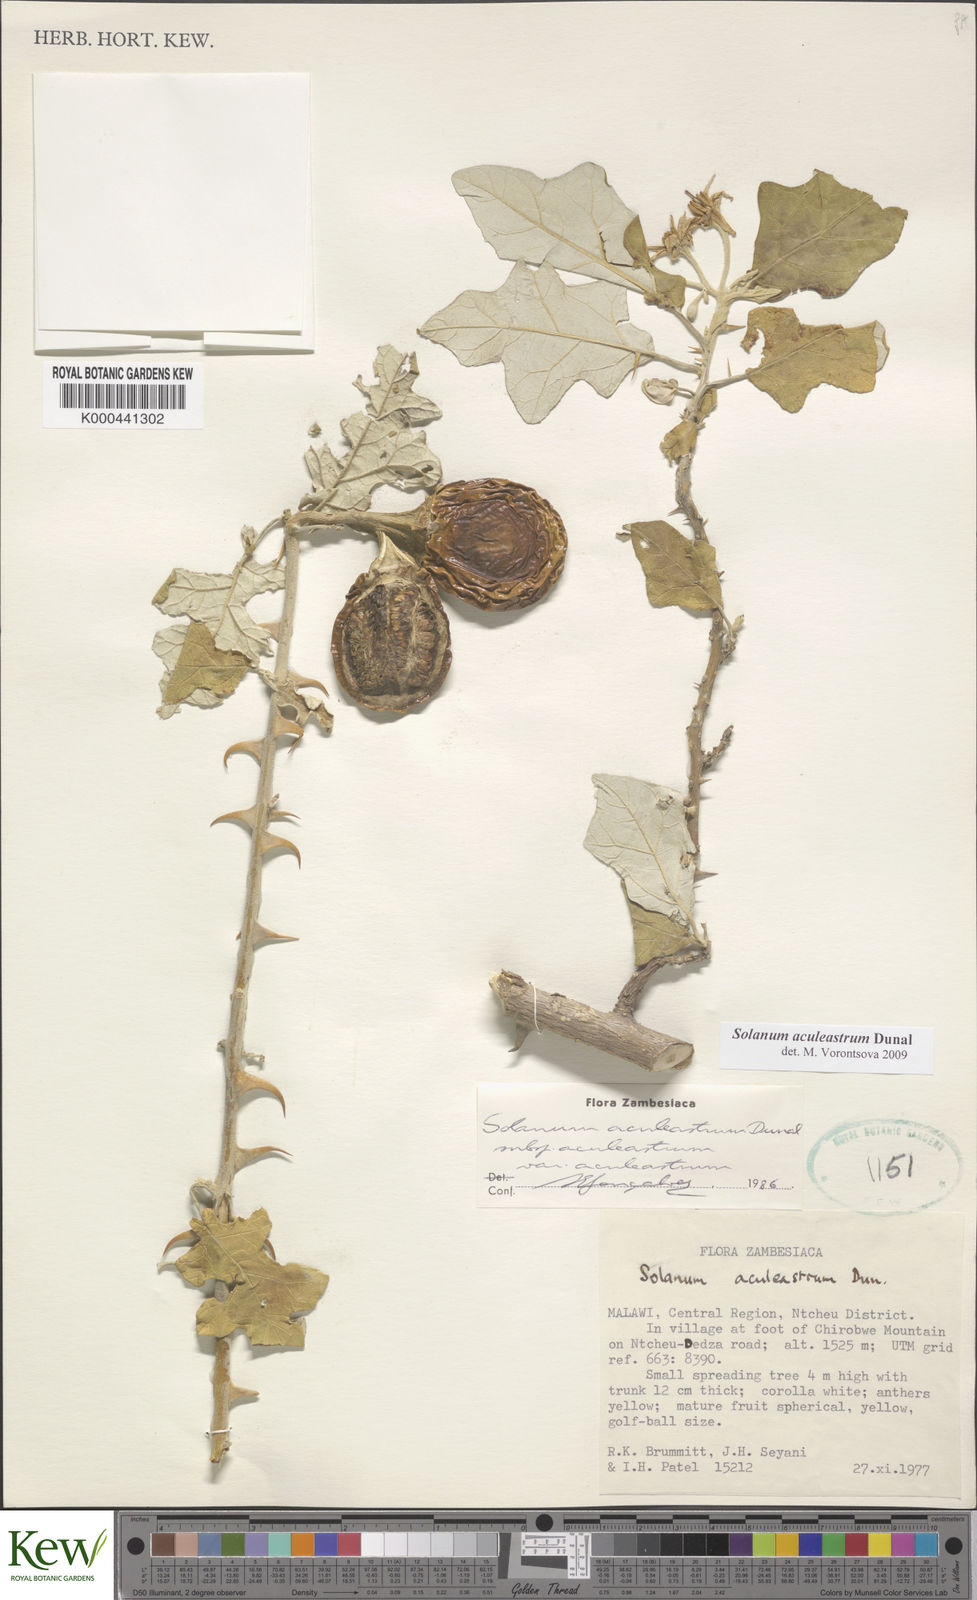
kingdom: Plantae
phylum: Tracheophyta
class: Magnoliopsida
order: Solanales
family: Solanaceae
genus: Solanum
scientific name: Solanum aculeastrum
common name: Goat bitter-apple
